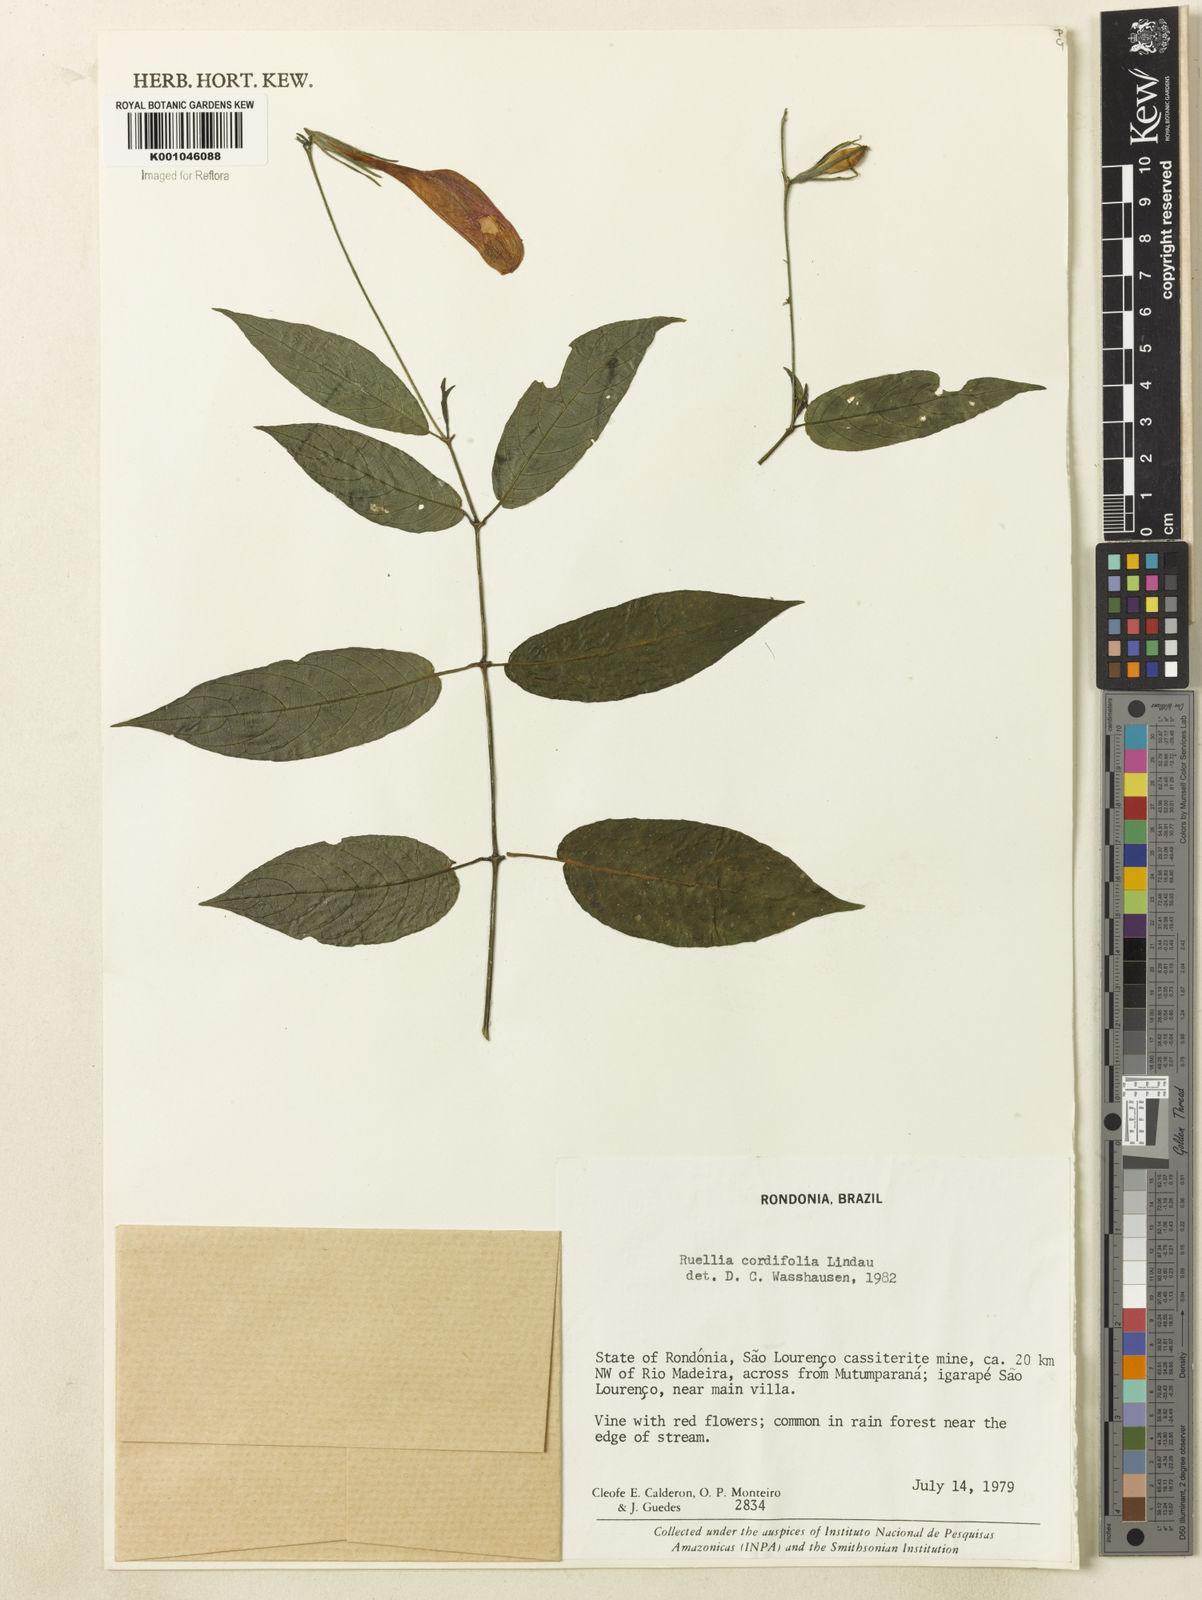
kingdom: Plantae
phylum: Tracheophyta
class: Magnoliopsida
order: Lamiales
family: Acanthaceae
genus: Ruellia
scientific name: Ruellia inflata
